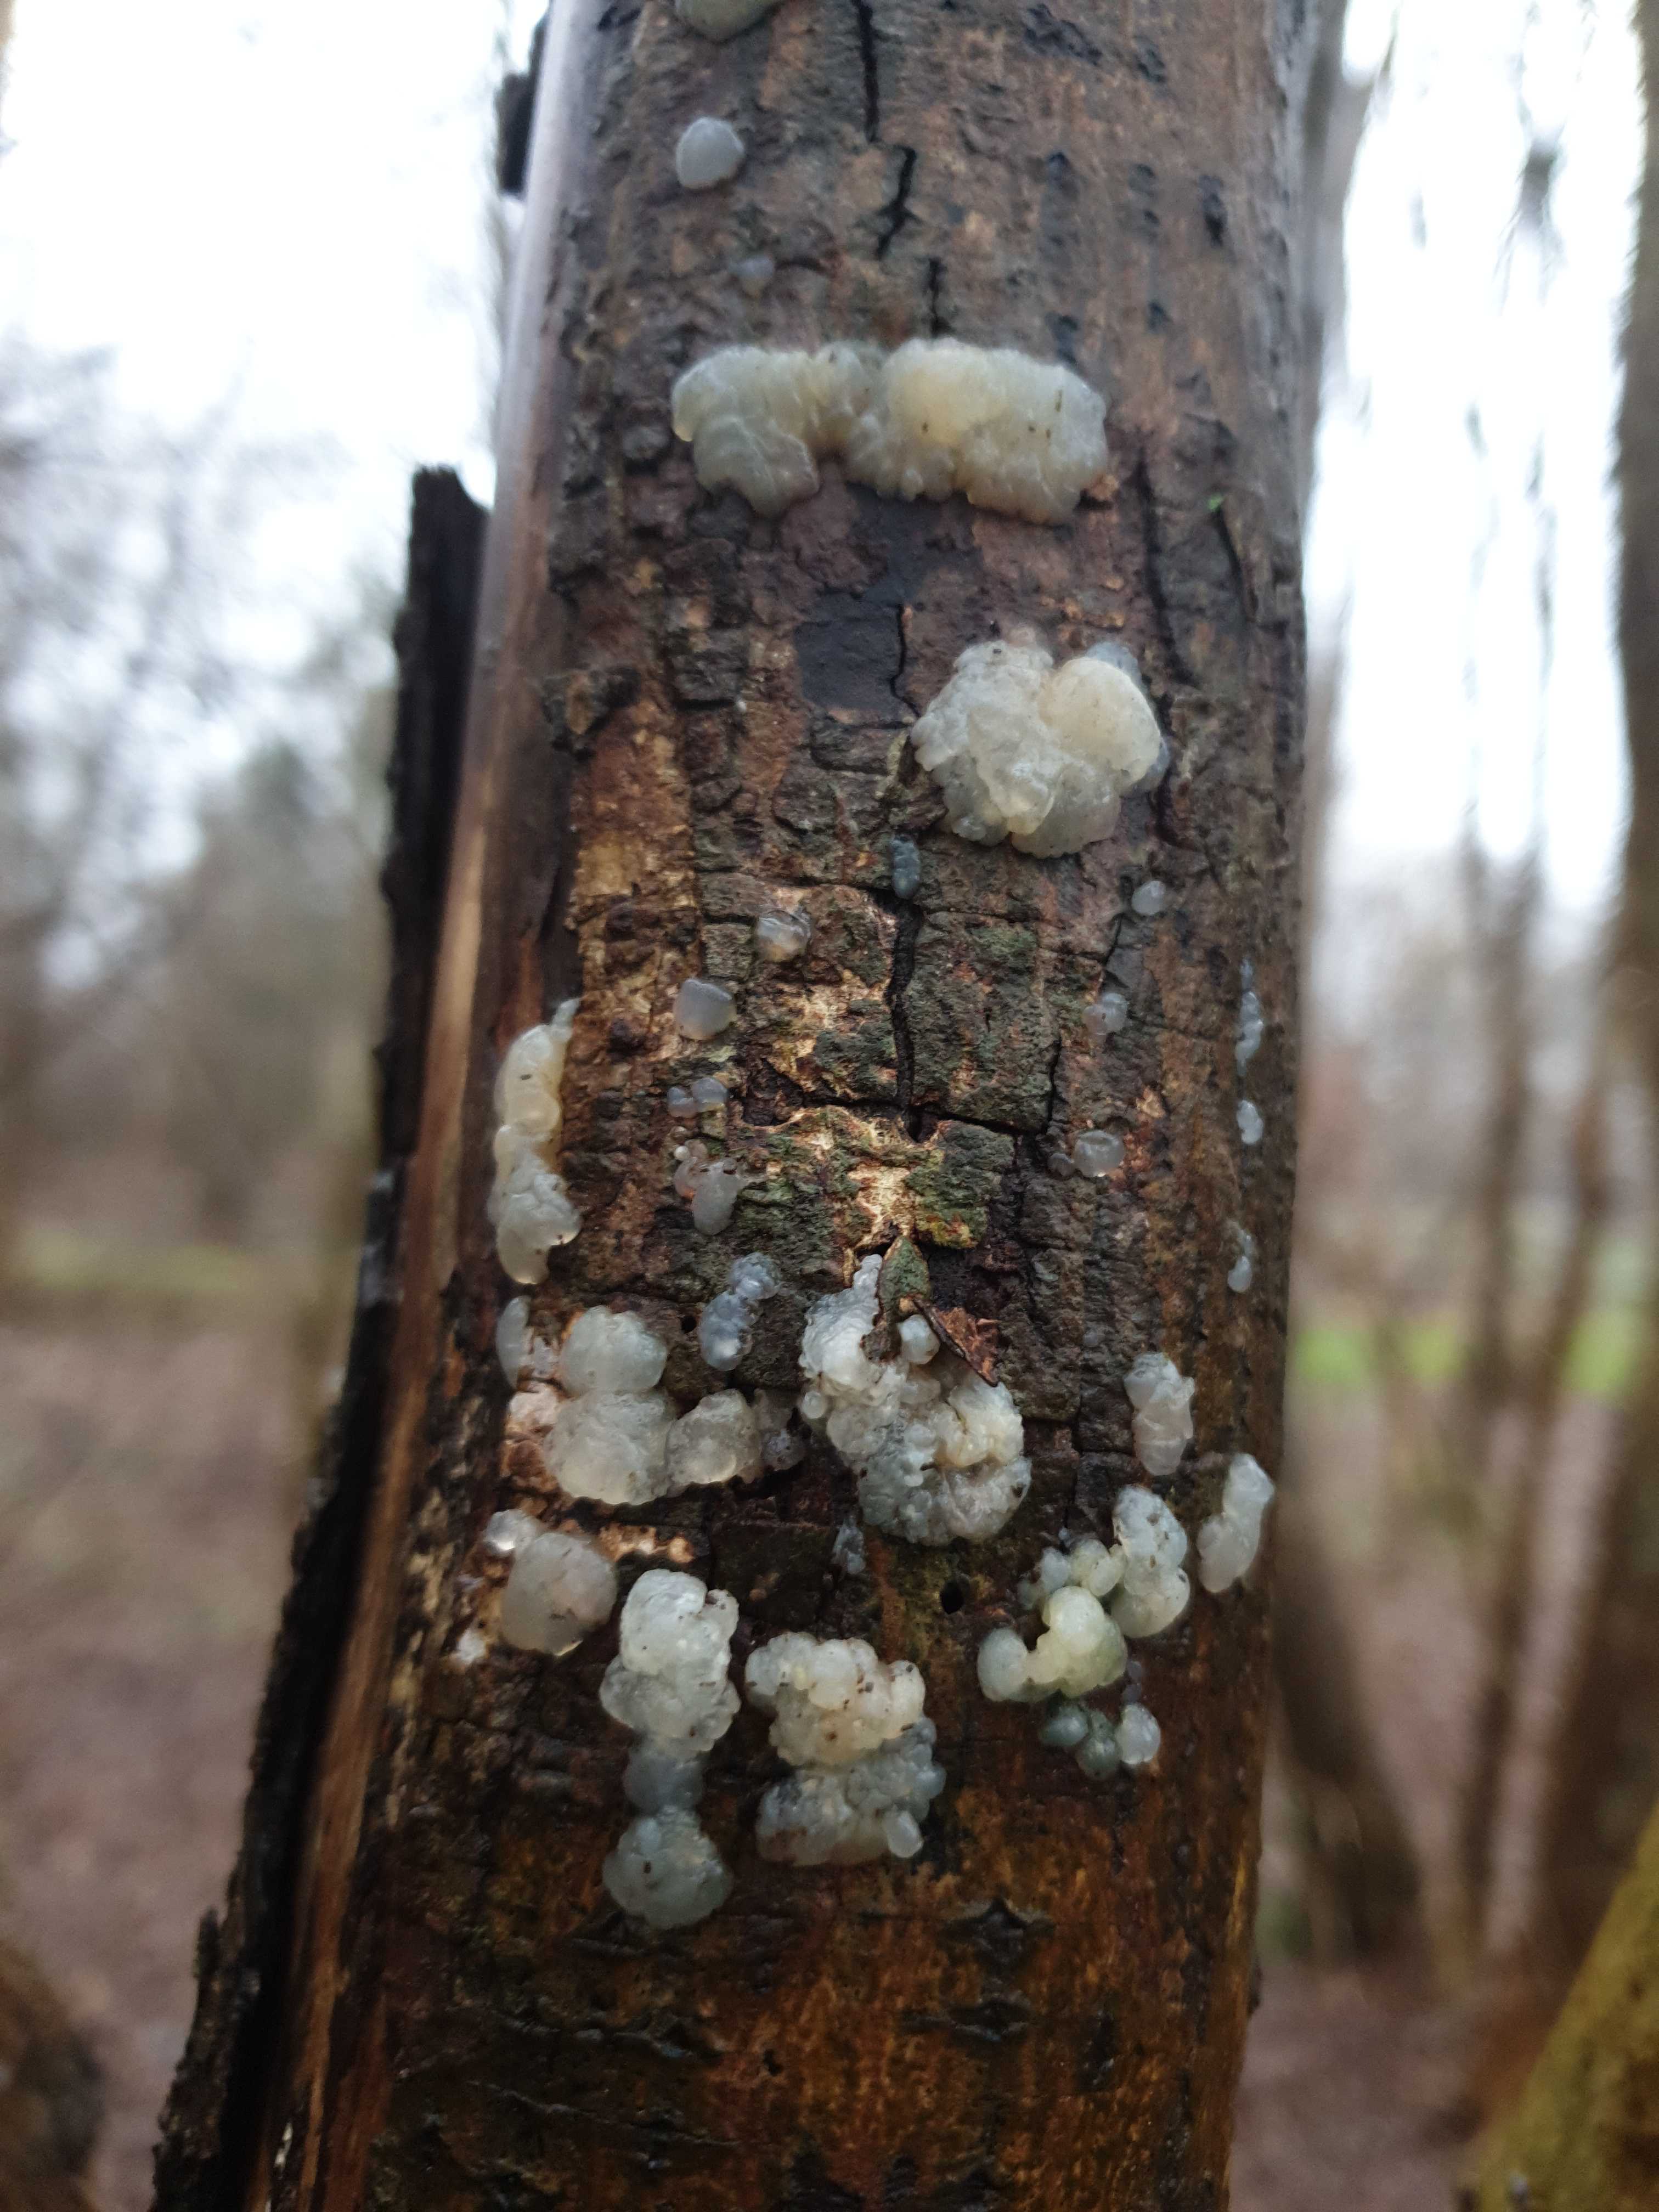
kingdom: Fungi
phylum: Basidiomycota
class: Agaricomycetes
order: Auriculariales
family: Hyaloriaceae
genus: Myxarium
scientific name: Myxarium nucleatum
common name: klar bævretop
